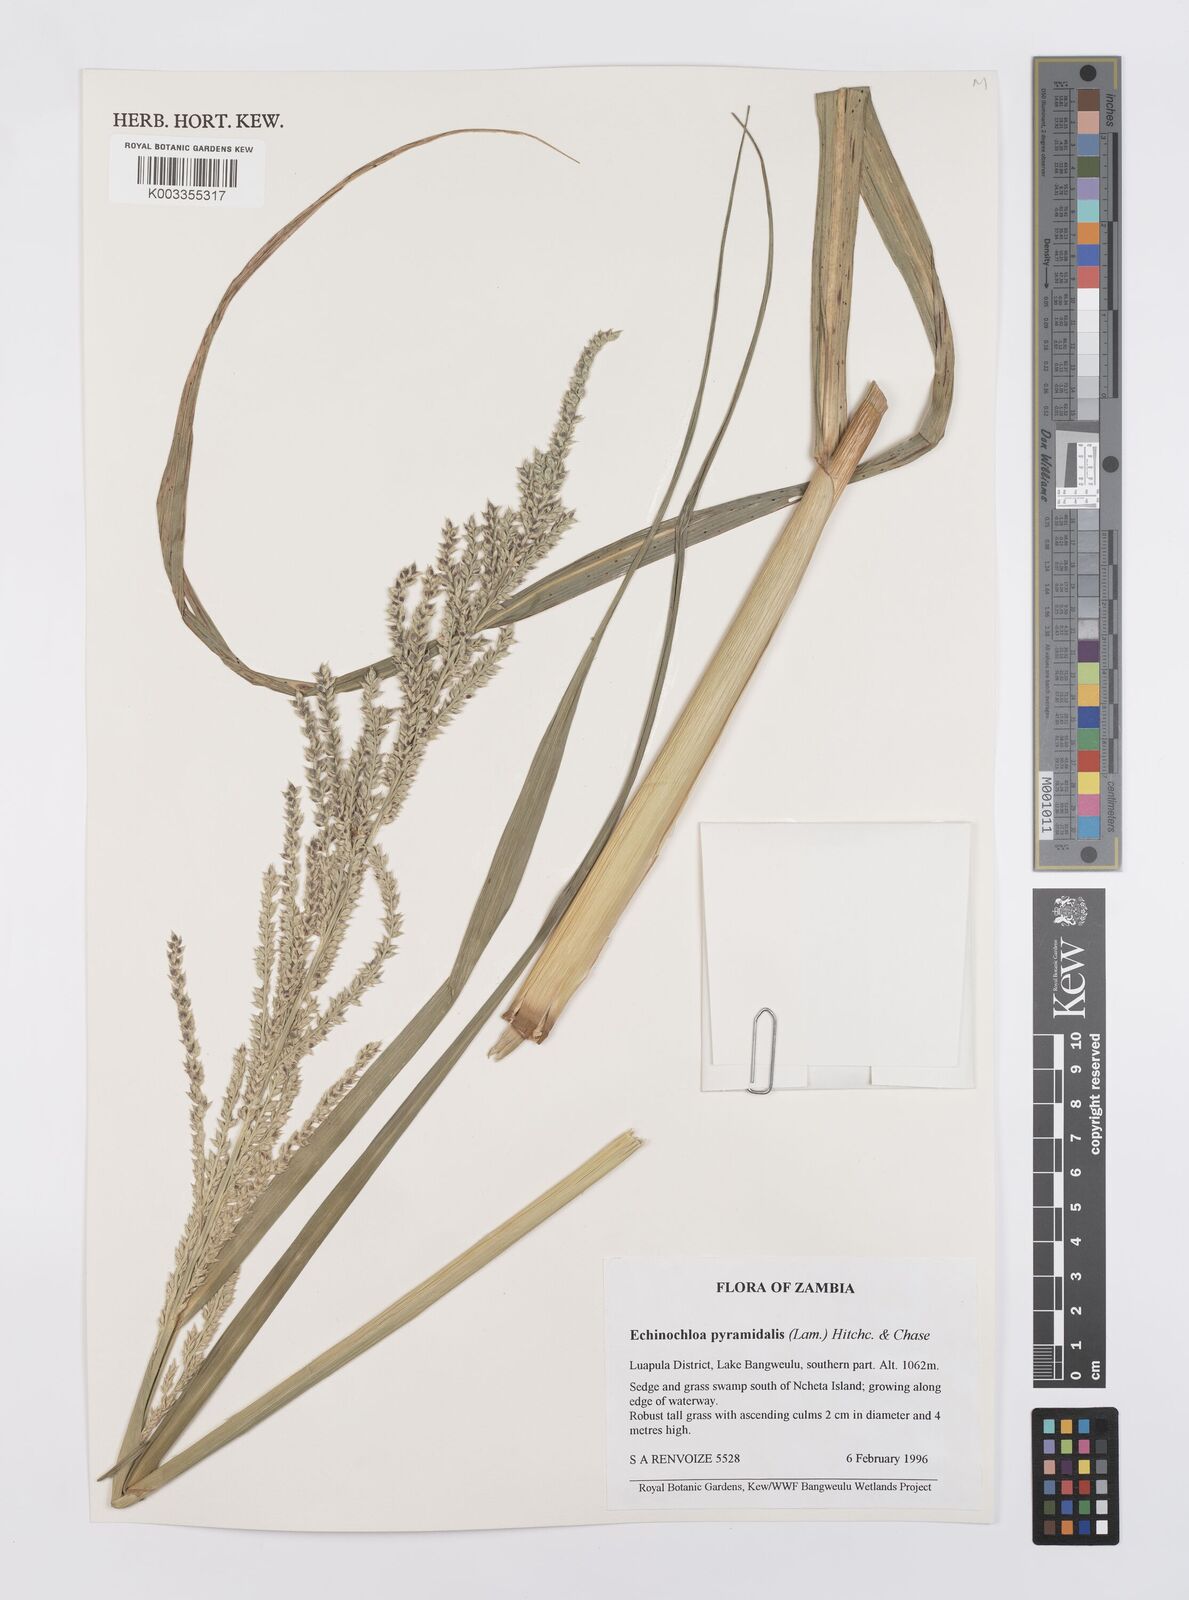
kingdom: Plantae
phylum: Tracheophyta
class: Liliopsida
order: Poales
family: Poaceae
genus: Echinochloa
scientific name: Echinochloa pyramidalis
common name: Antelope grass
